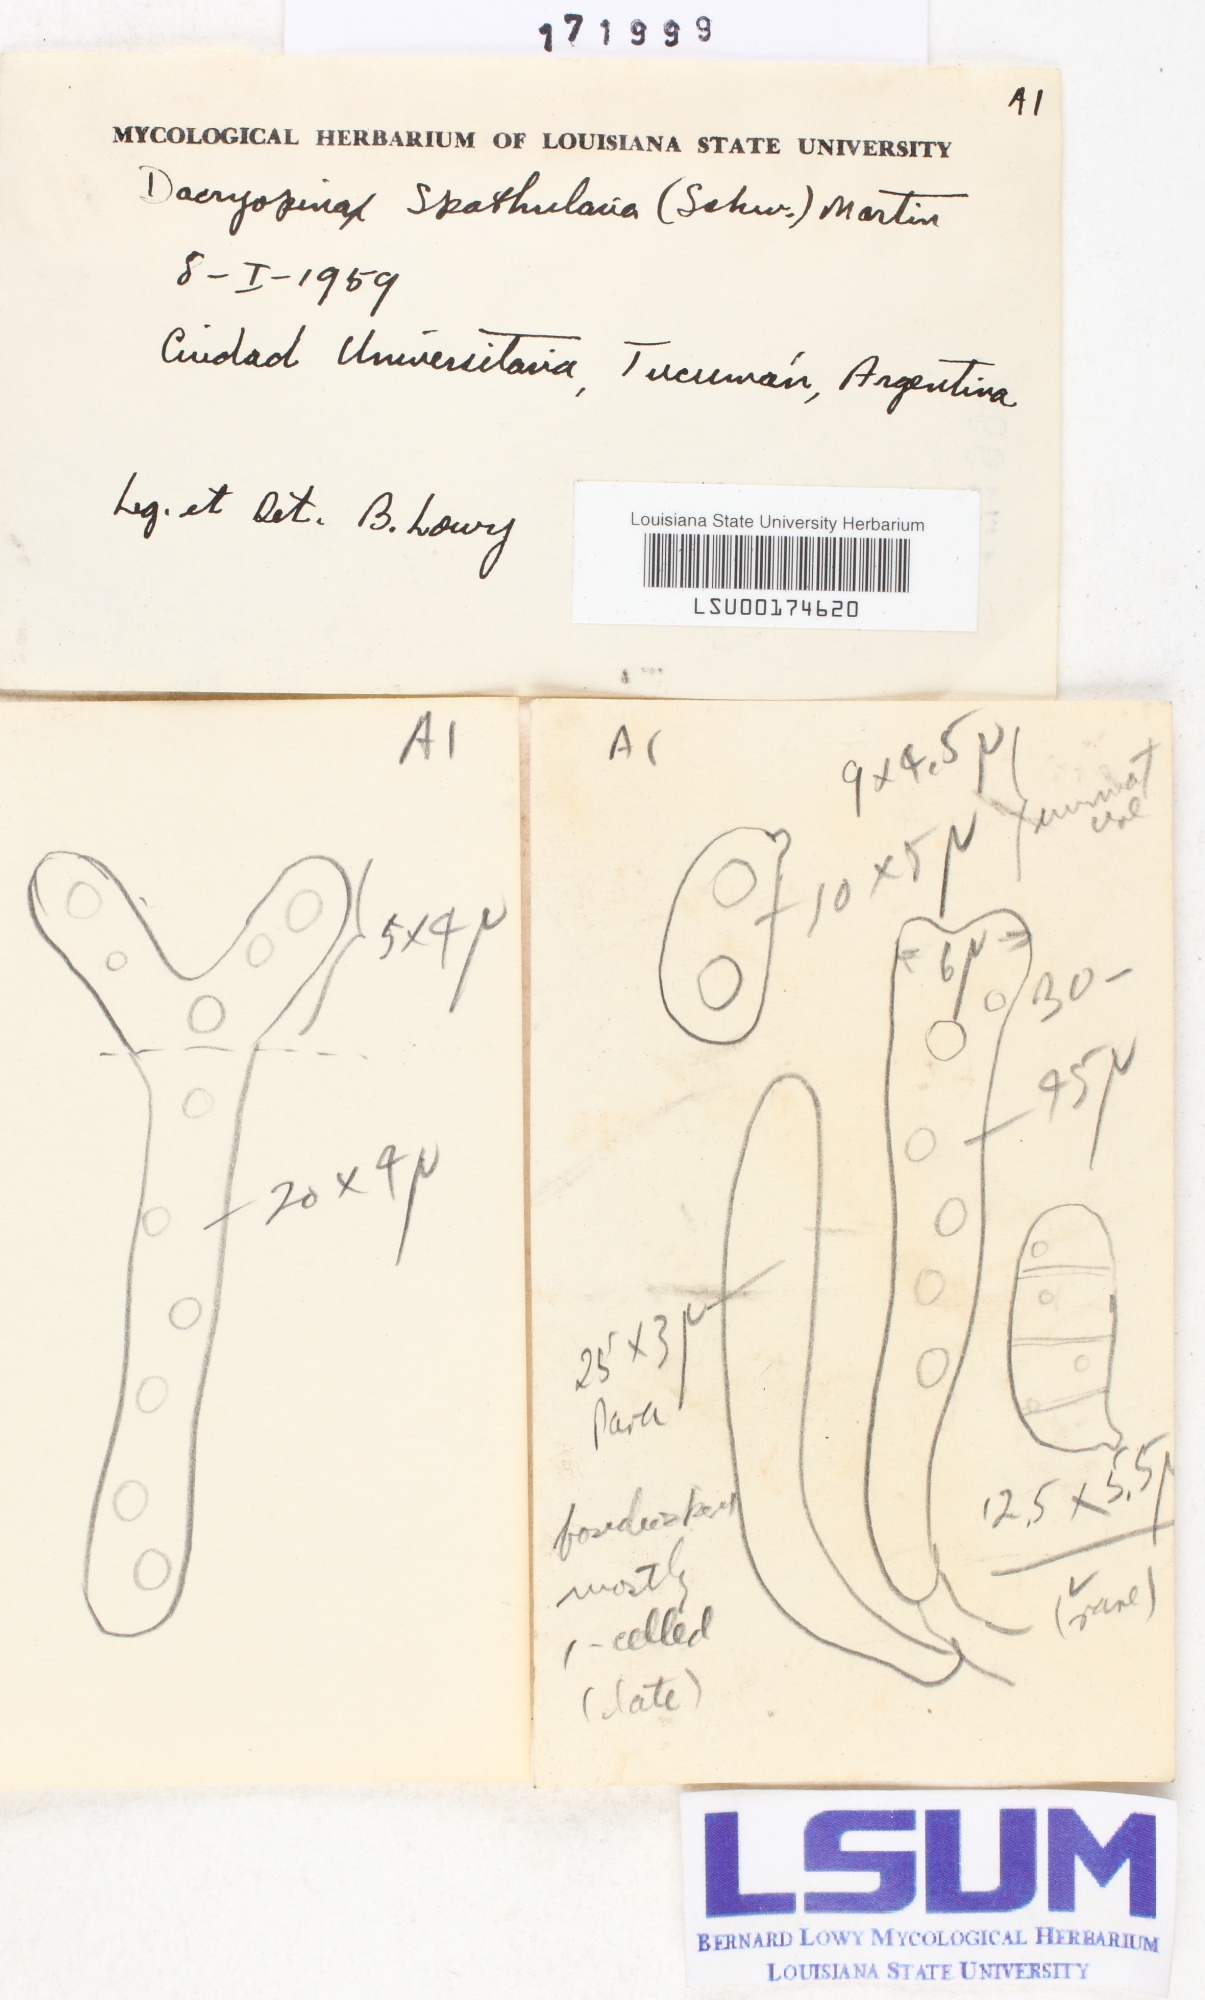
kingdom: Fungi
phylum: Basidiomycota
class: Dacrymycetes
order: Dacrymycetales
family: Dacrymycetaceae
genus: Dacrymyces
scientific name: Dacrymyces spathularius
